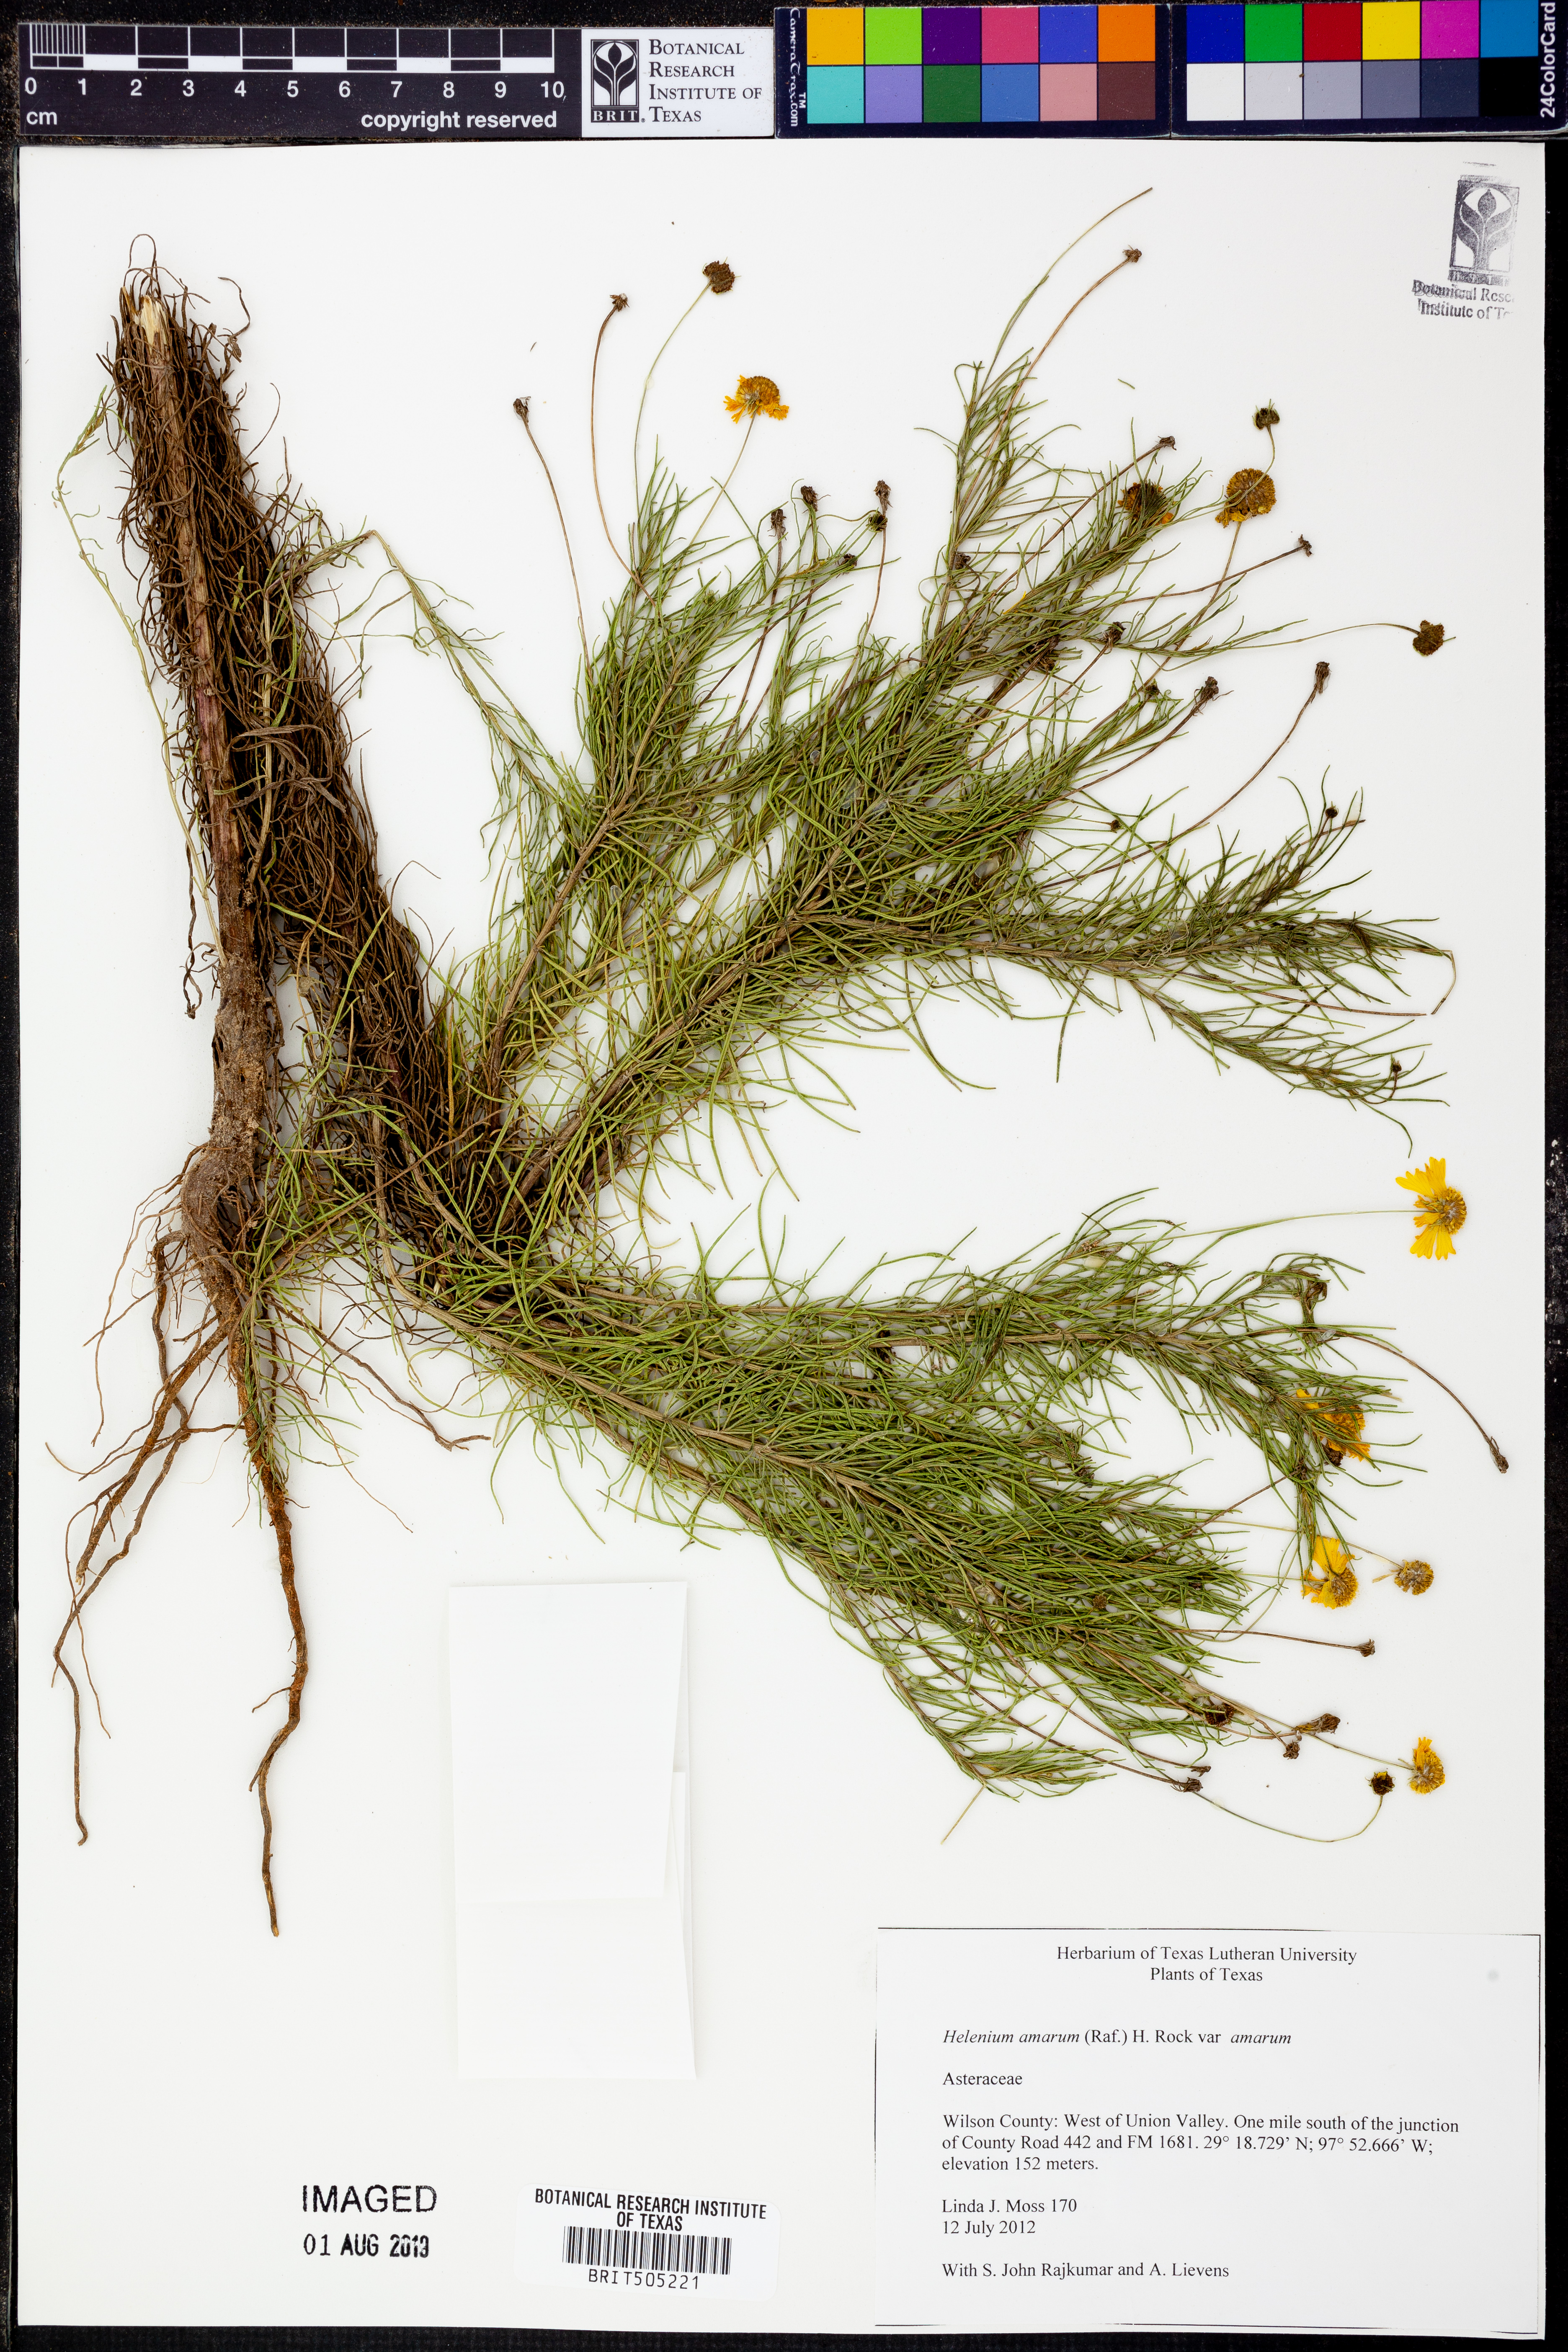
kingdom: Plantae
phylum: Tracheophyta
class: Magnoliopsida
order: Asterales
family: Asteraceae
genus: Helenium
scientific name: Helenium amarum
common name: Bitter sneezeweed
